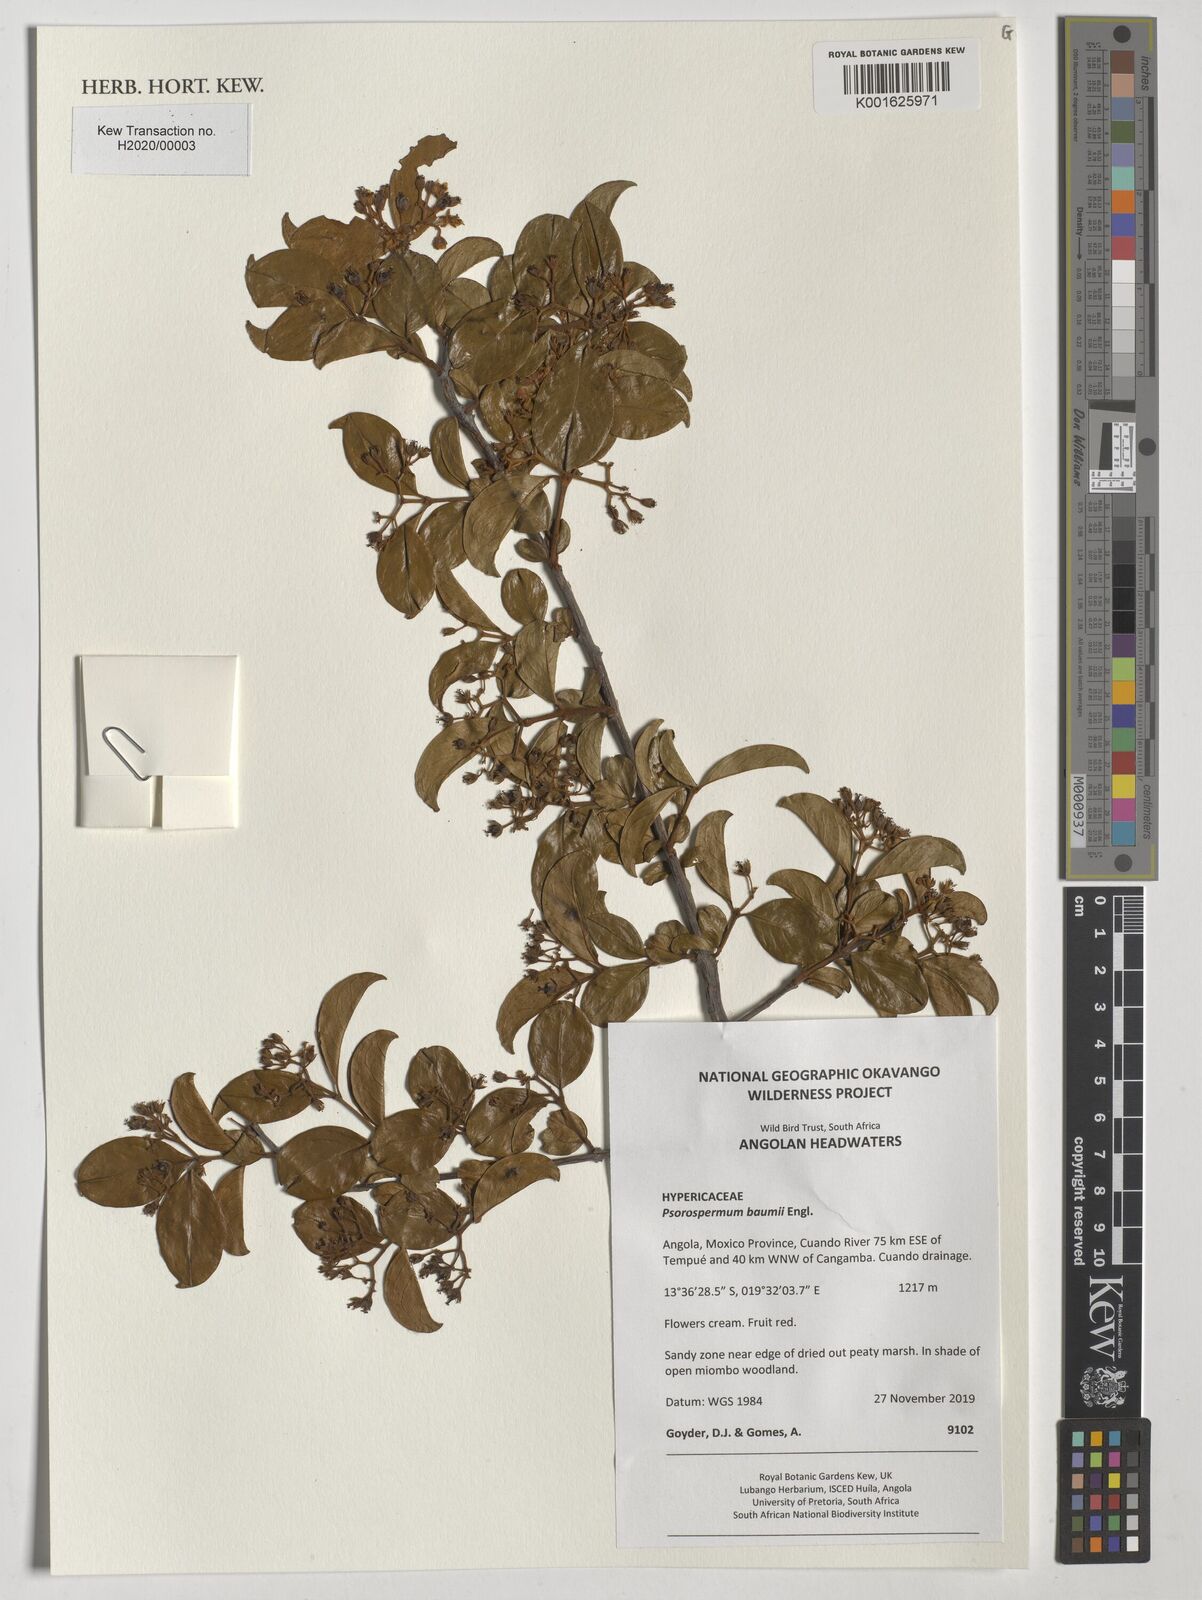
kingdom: Plantae
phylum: Tracheophyta
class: Magnoliopsida
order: Malpighiales
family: Hypericaceae
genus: Psorospermum
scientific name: Psorospermum baumii
